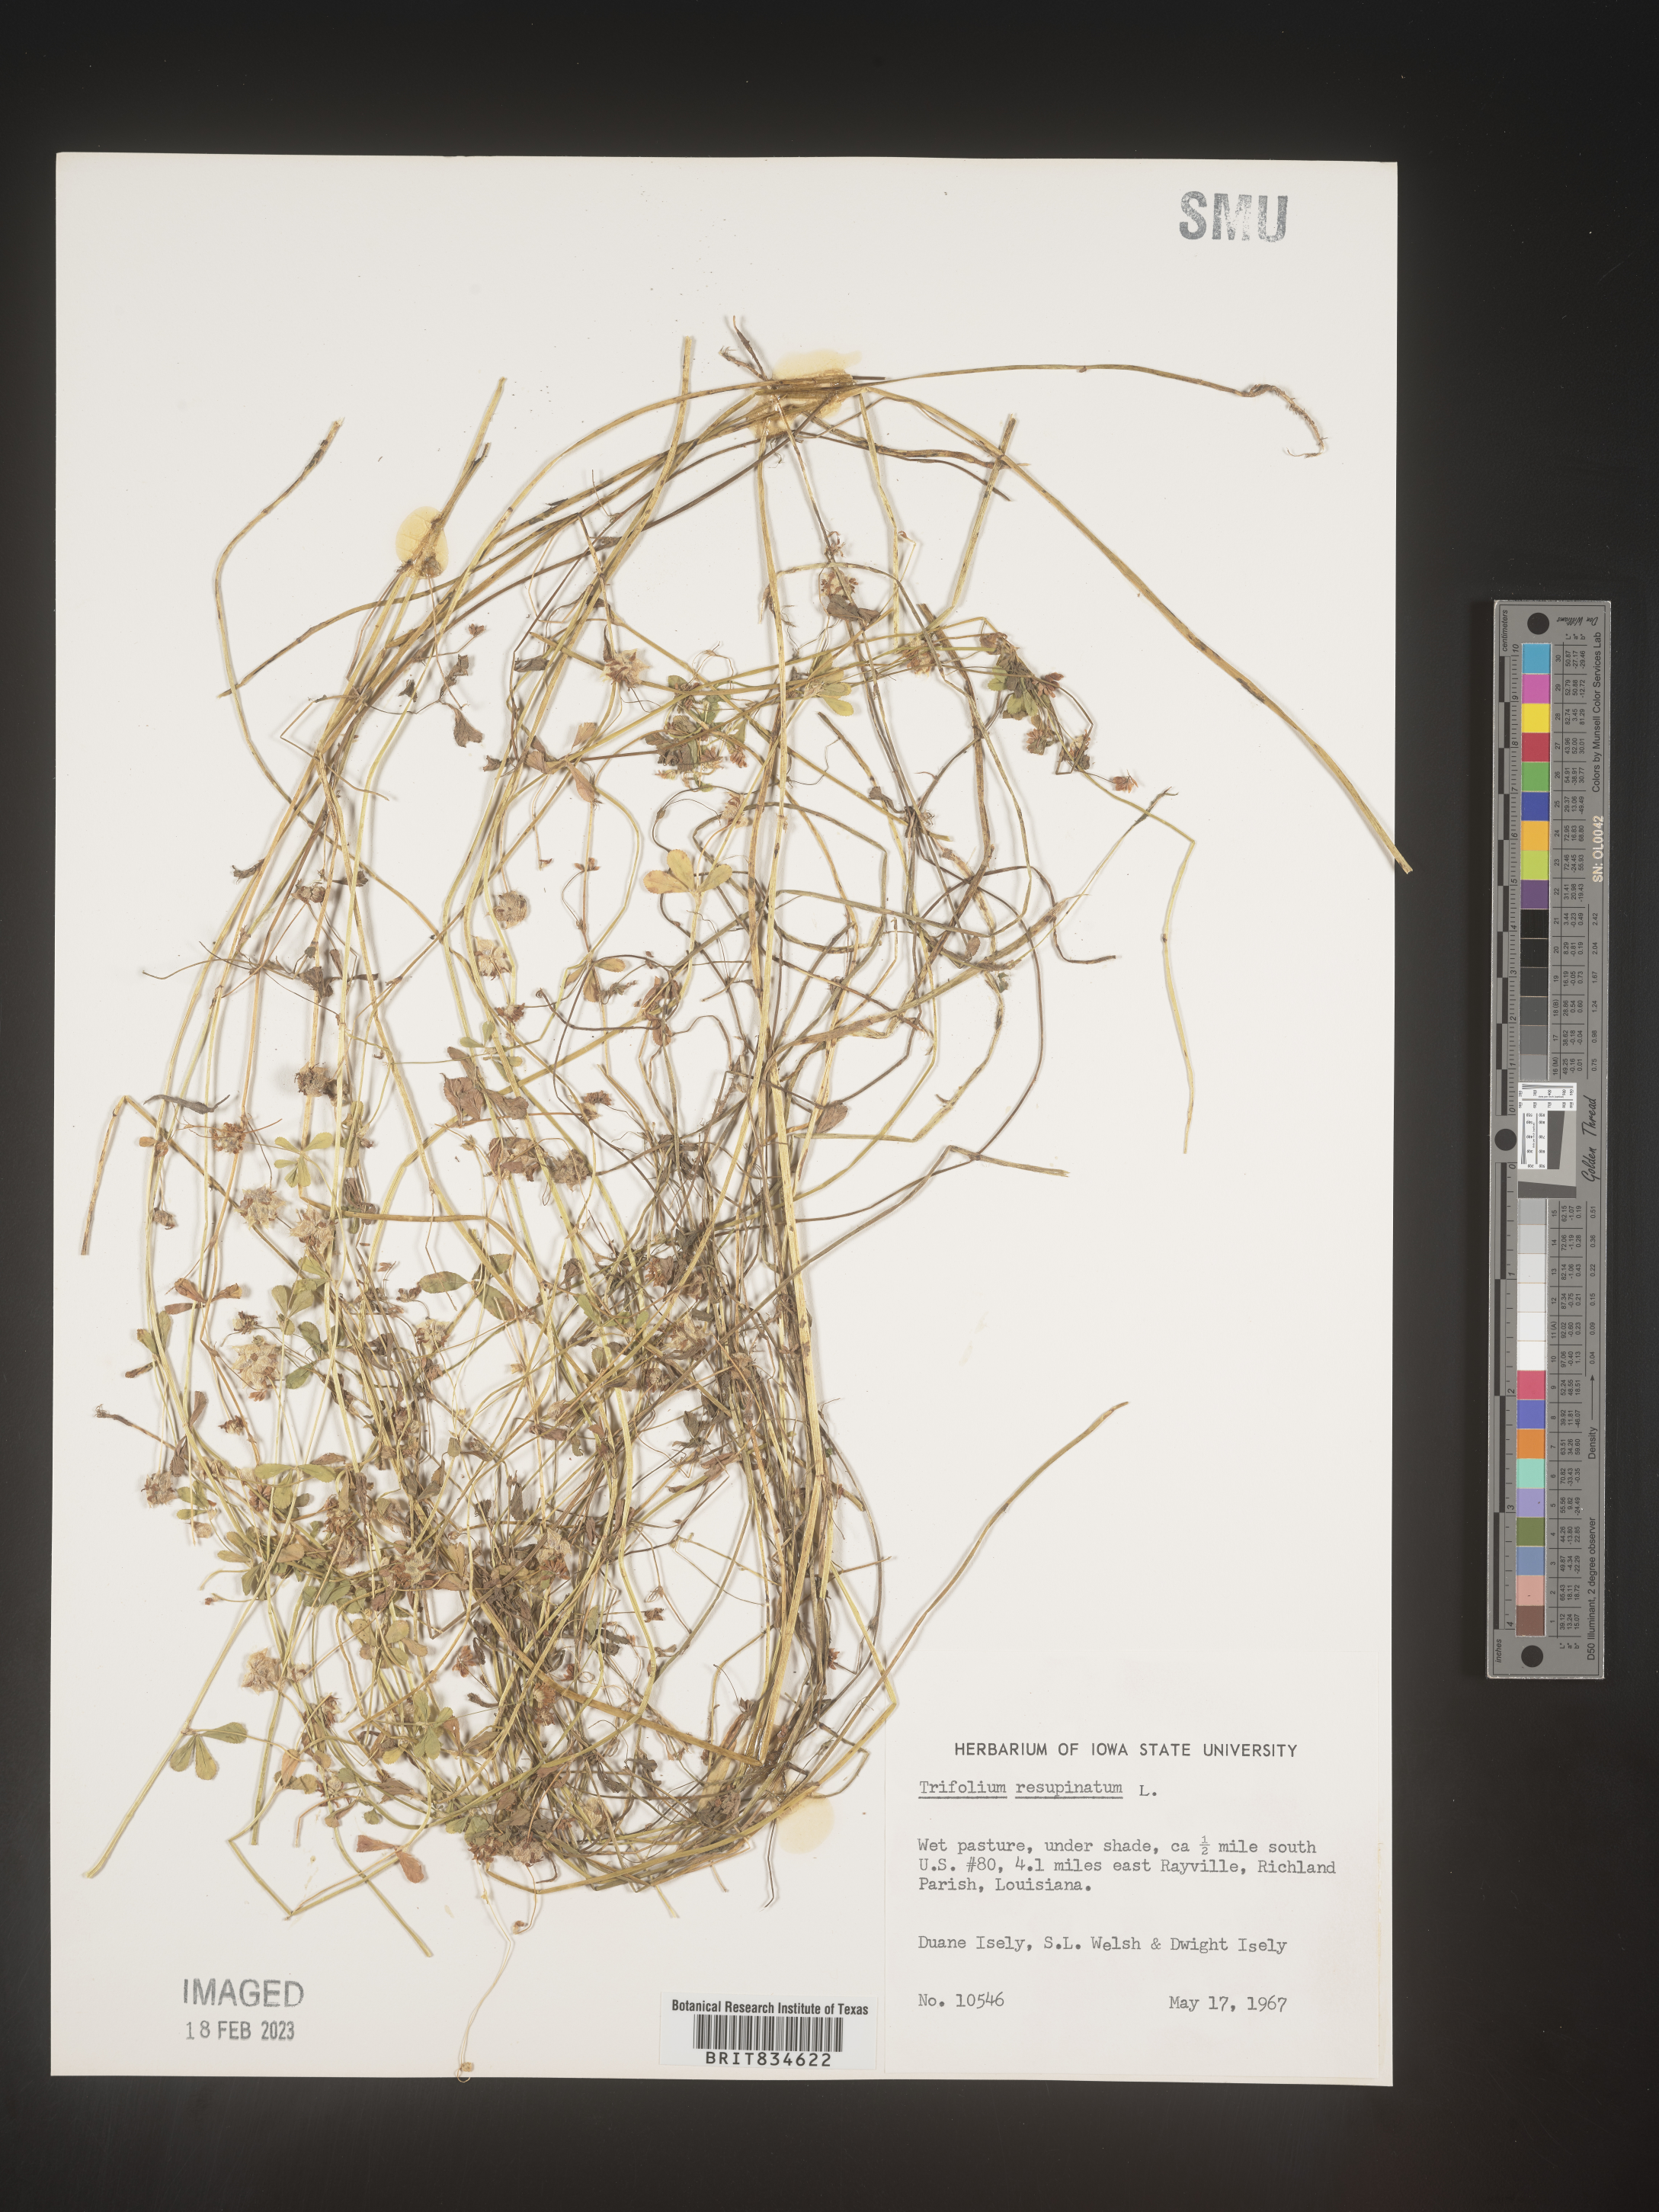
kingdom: Plantae
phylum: Tracheophyta
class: Magnoliopsida
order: Fabales
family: Fabaceae
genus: Trifolium
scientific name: Trifolium resupinatum
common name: Reversed clover
